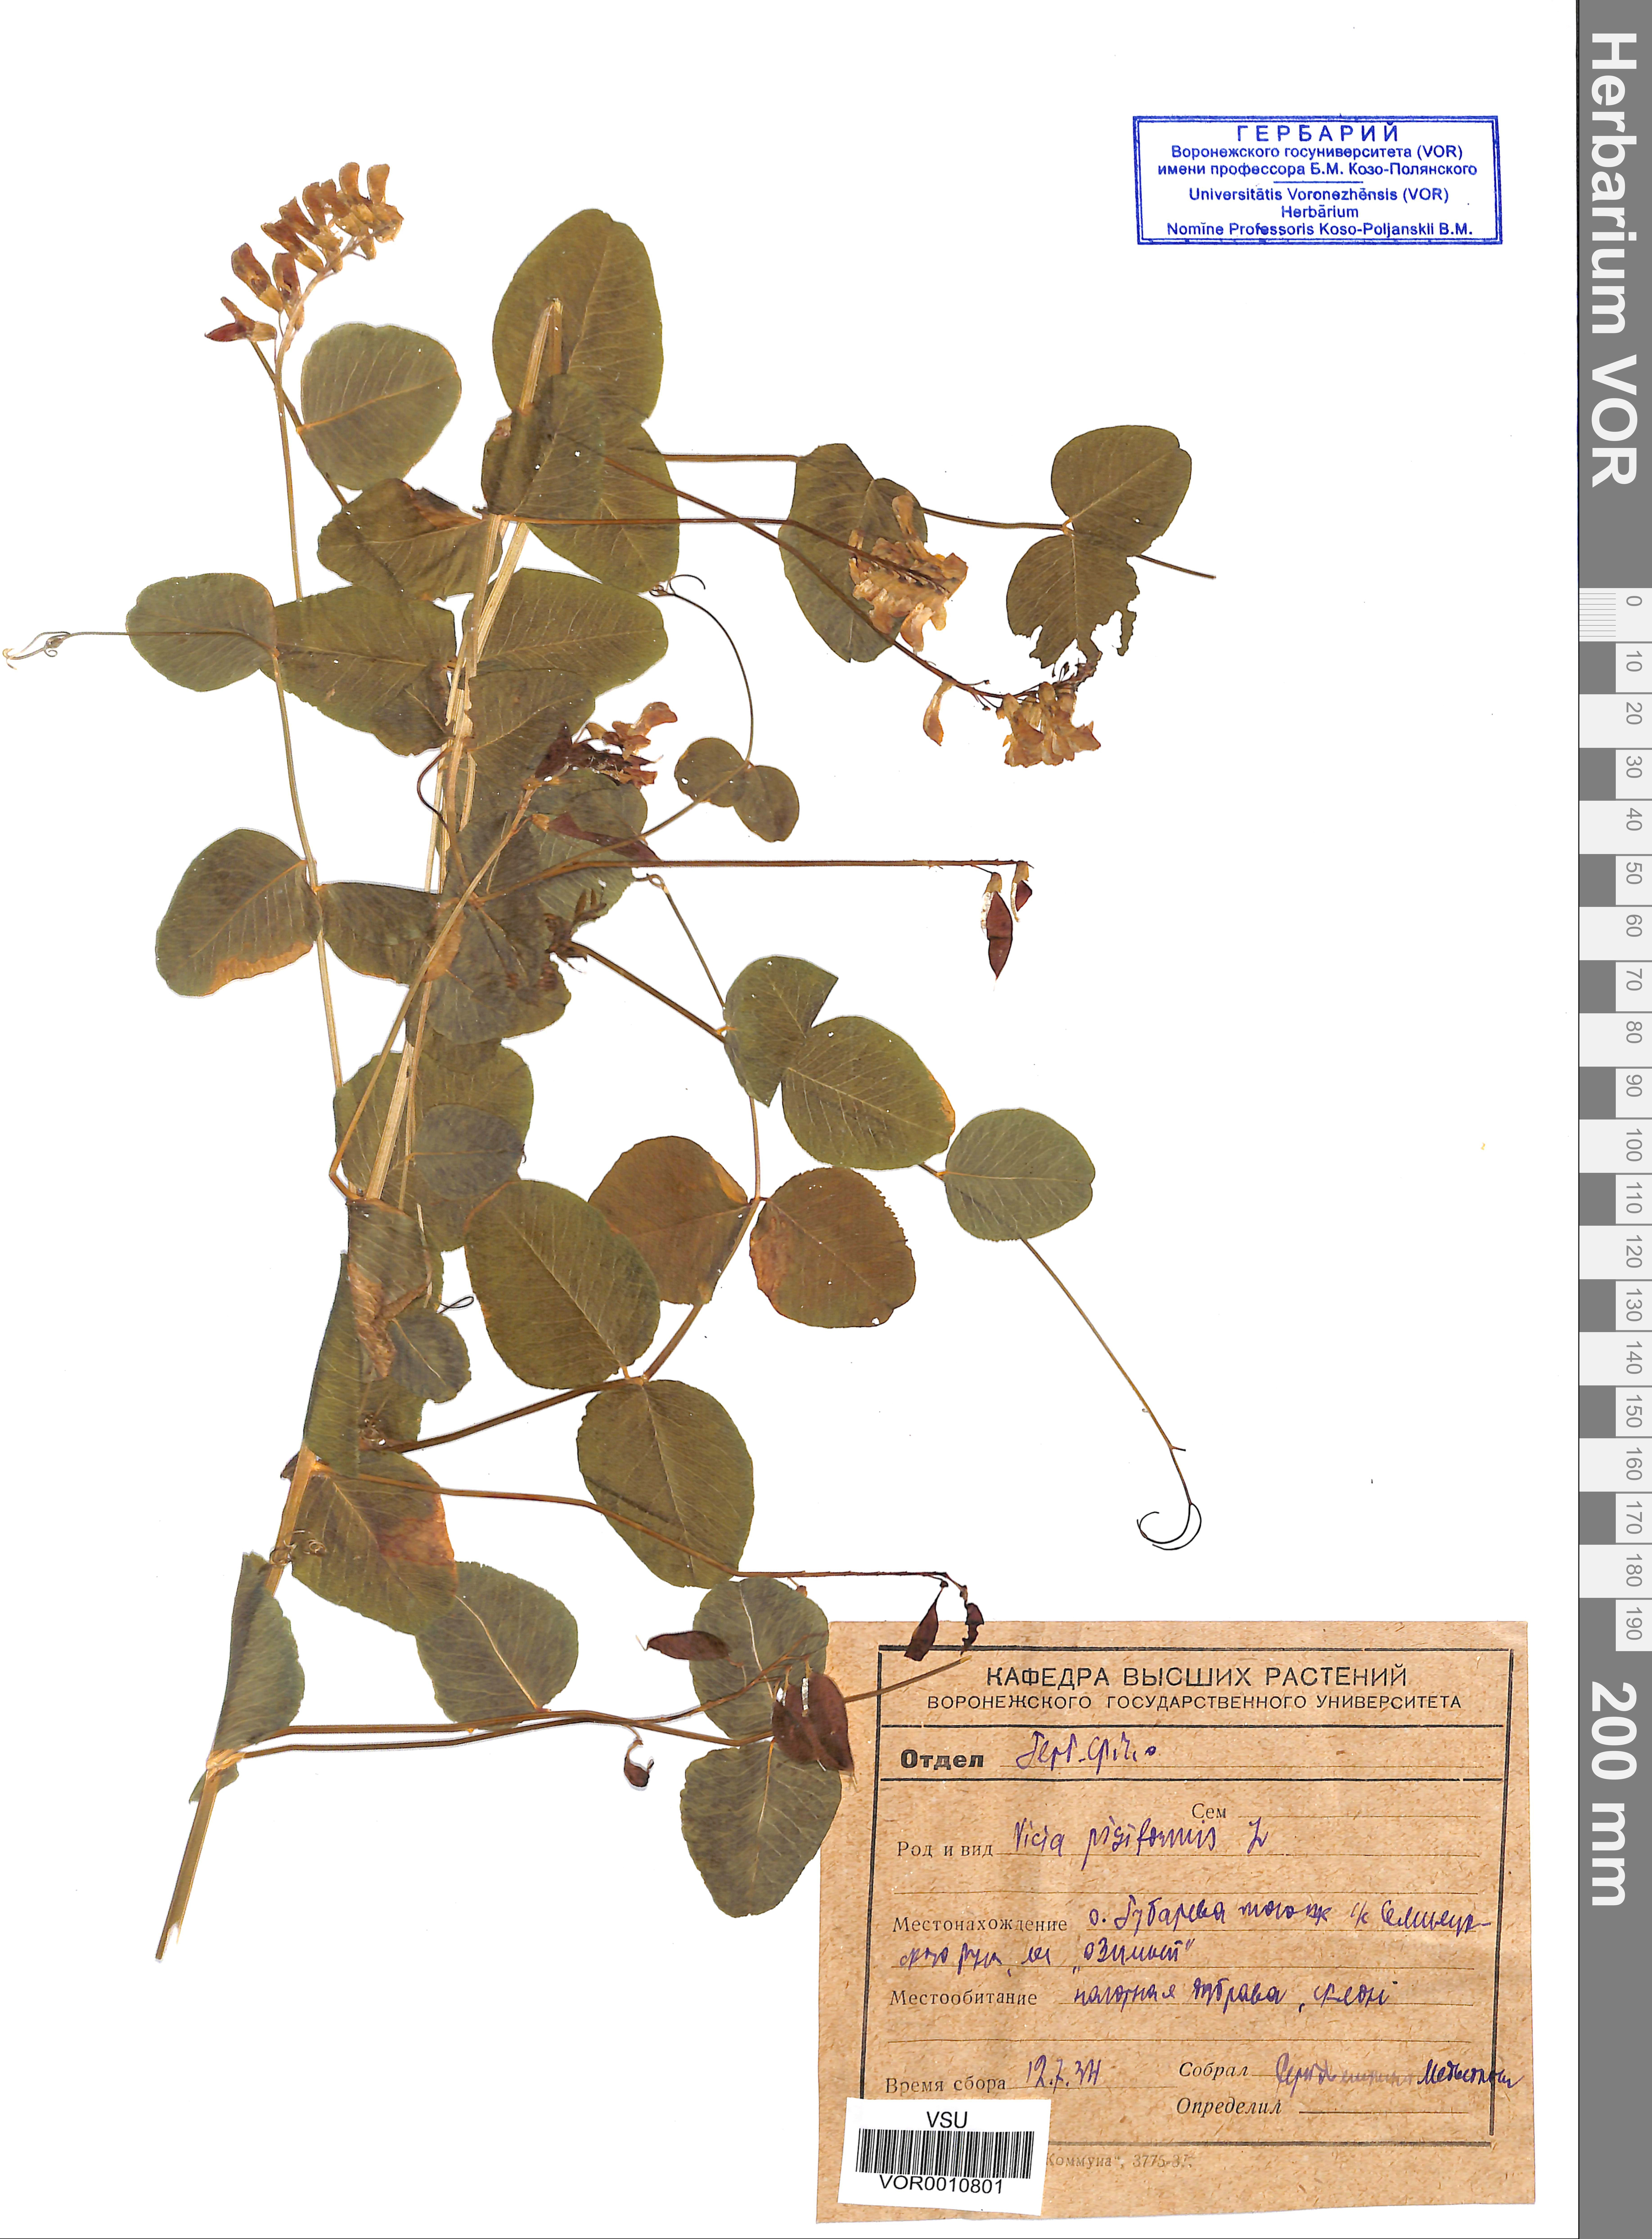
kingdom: Plantae
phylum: Tracheophyta
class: Magnoliopsida
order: Fabales
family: Fabaceae
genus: Vicia
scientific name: Vicia pisiformis
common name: Pale-flower vetch
